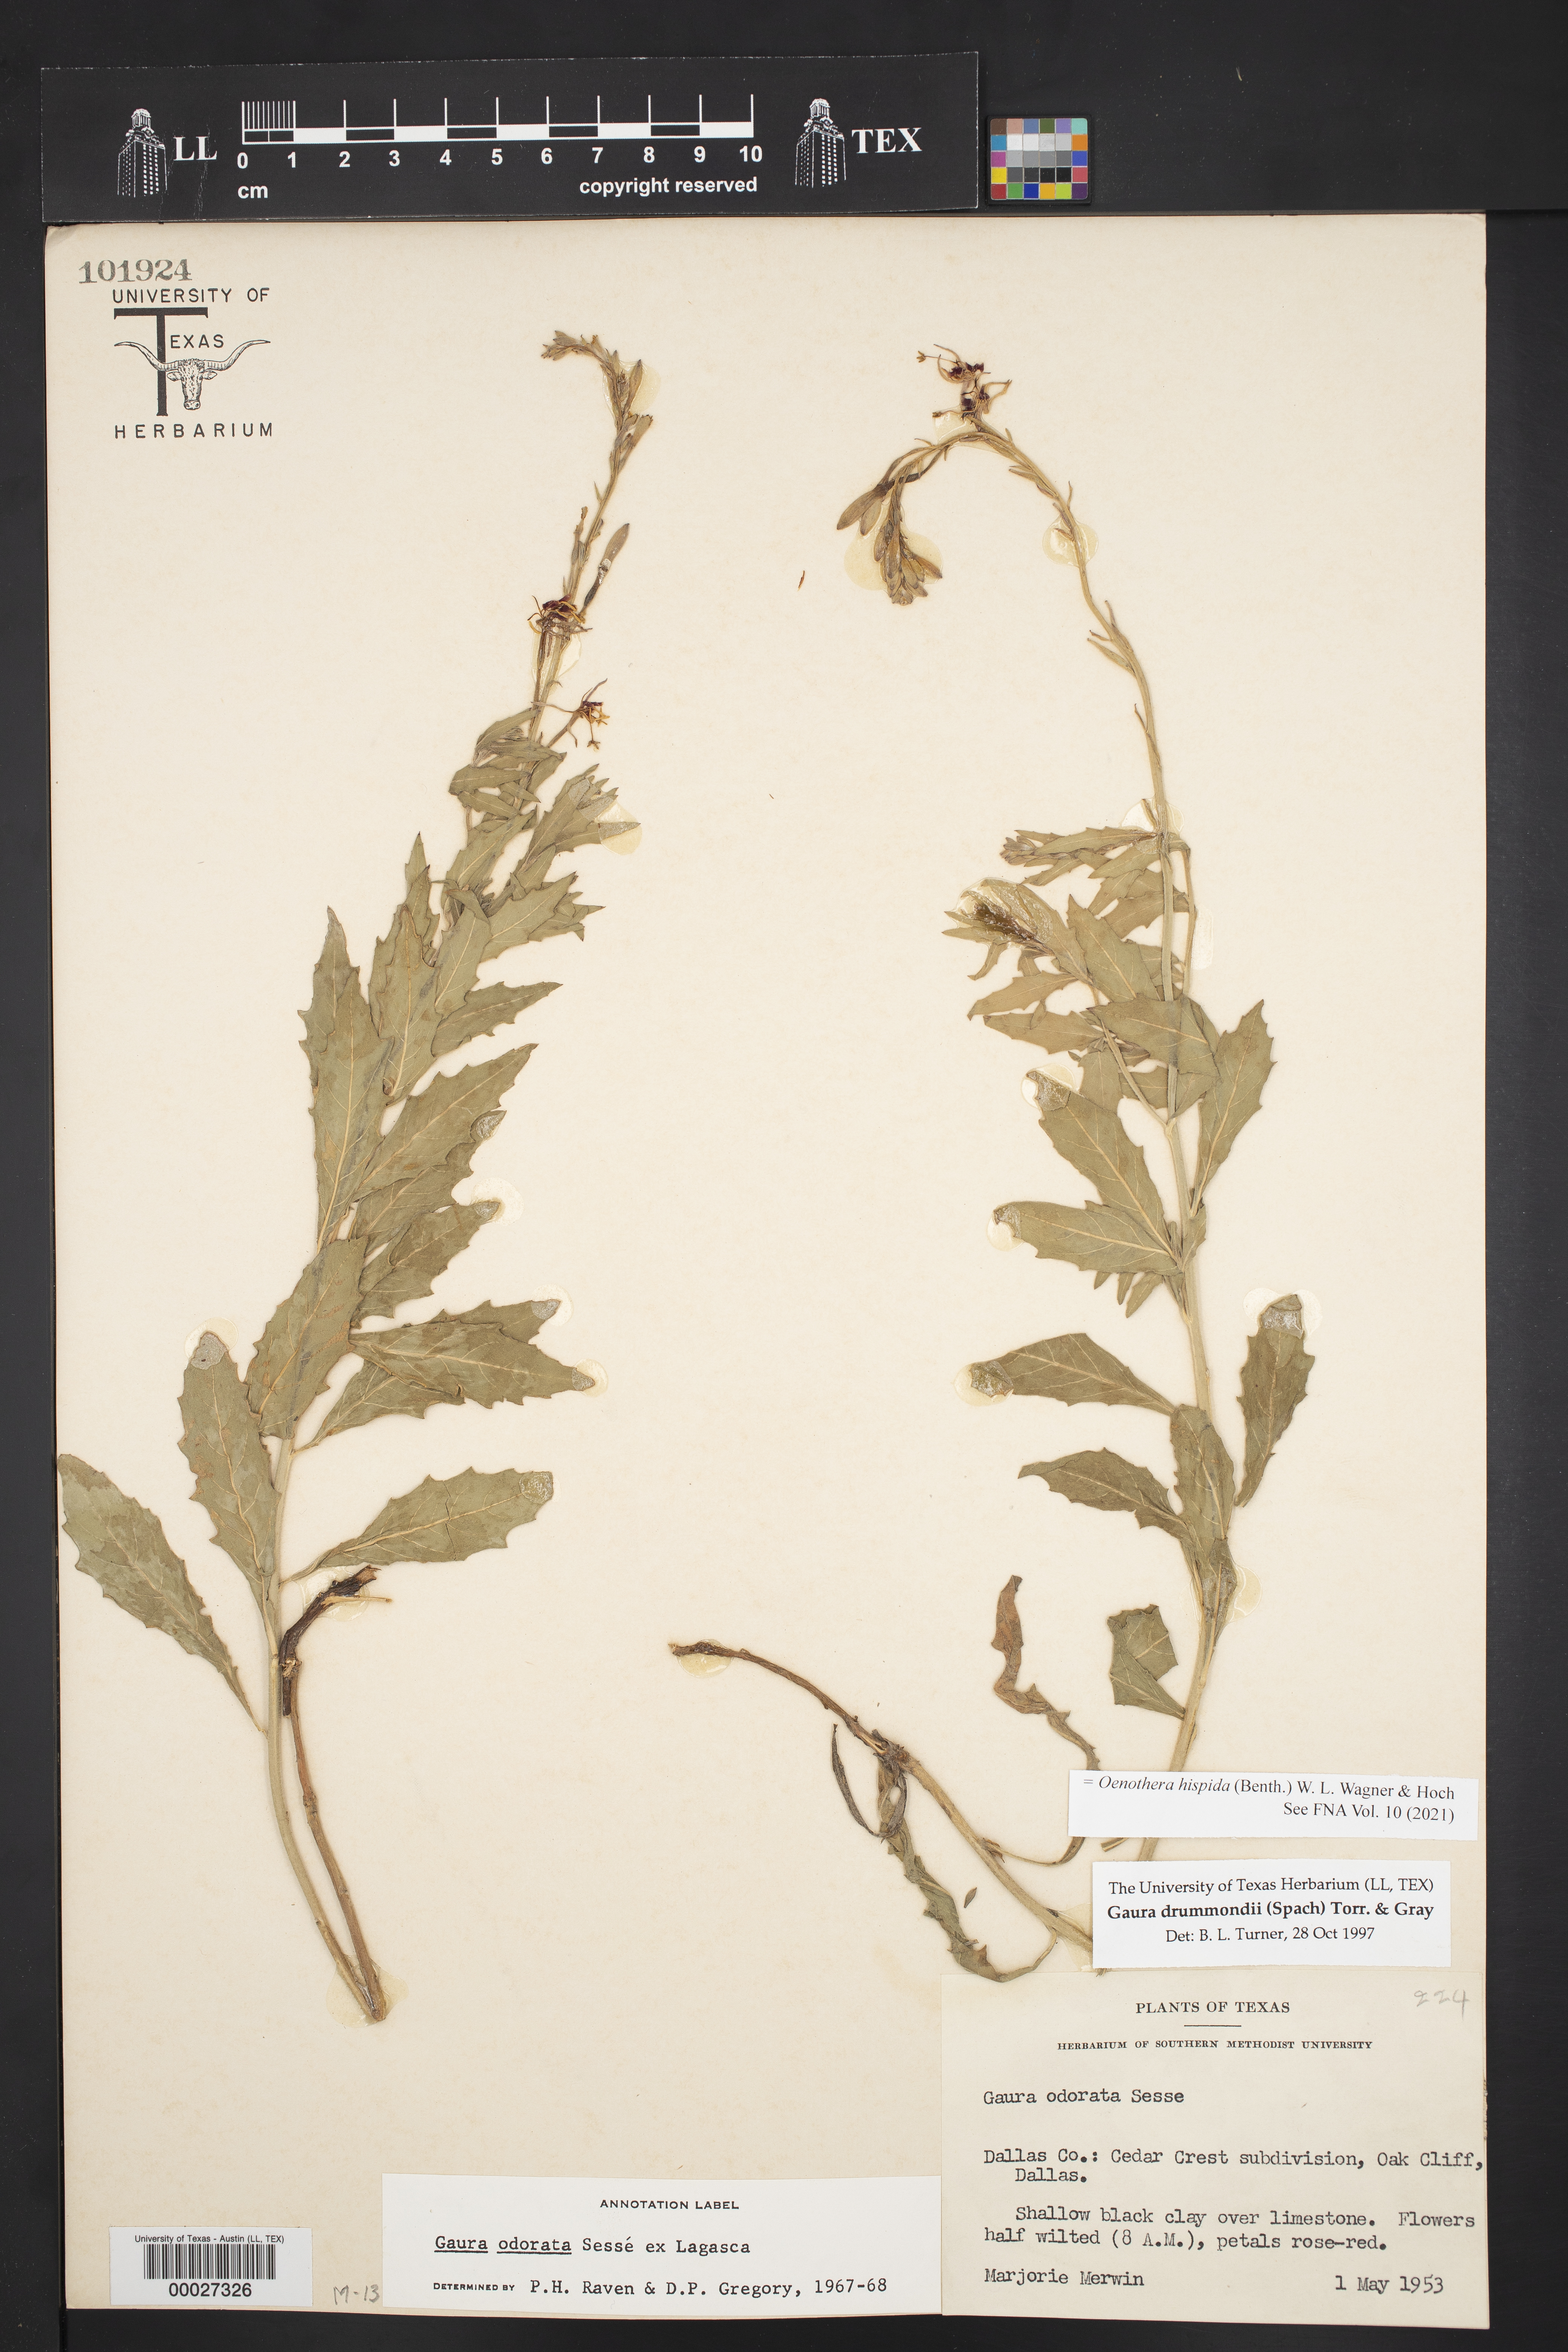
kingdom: Plantae
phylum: Tracheophyta
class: Magnoliopsida
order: Myrtales
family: Onagraceae
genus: Oenothera
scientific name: Oenothera hispida
